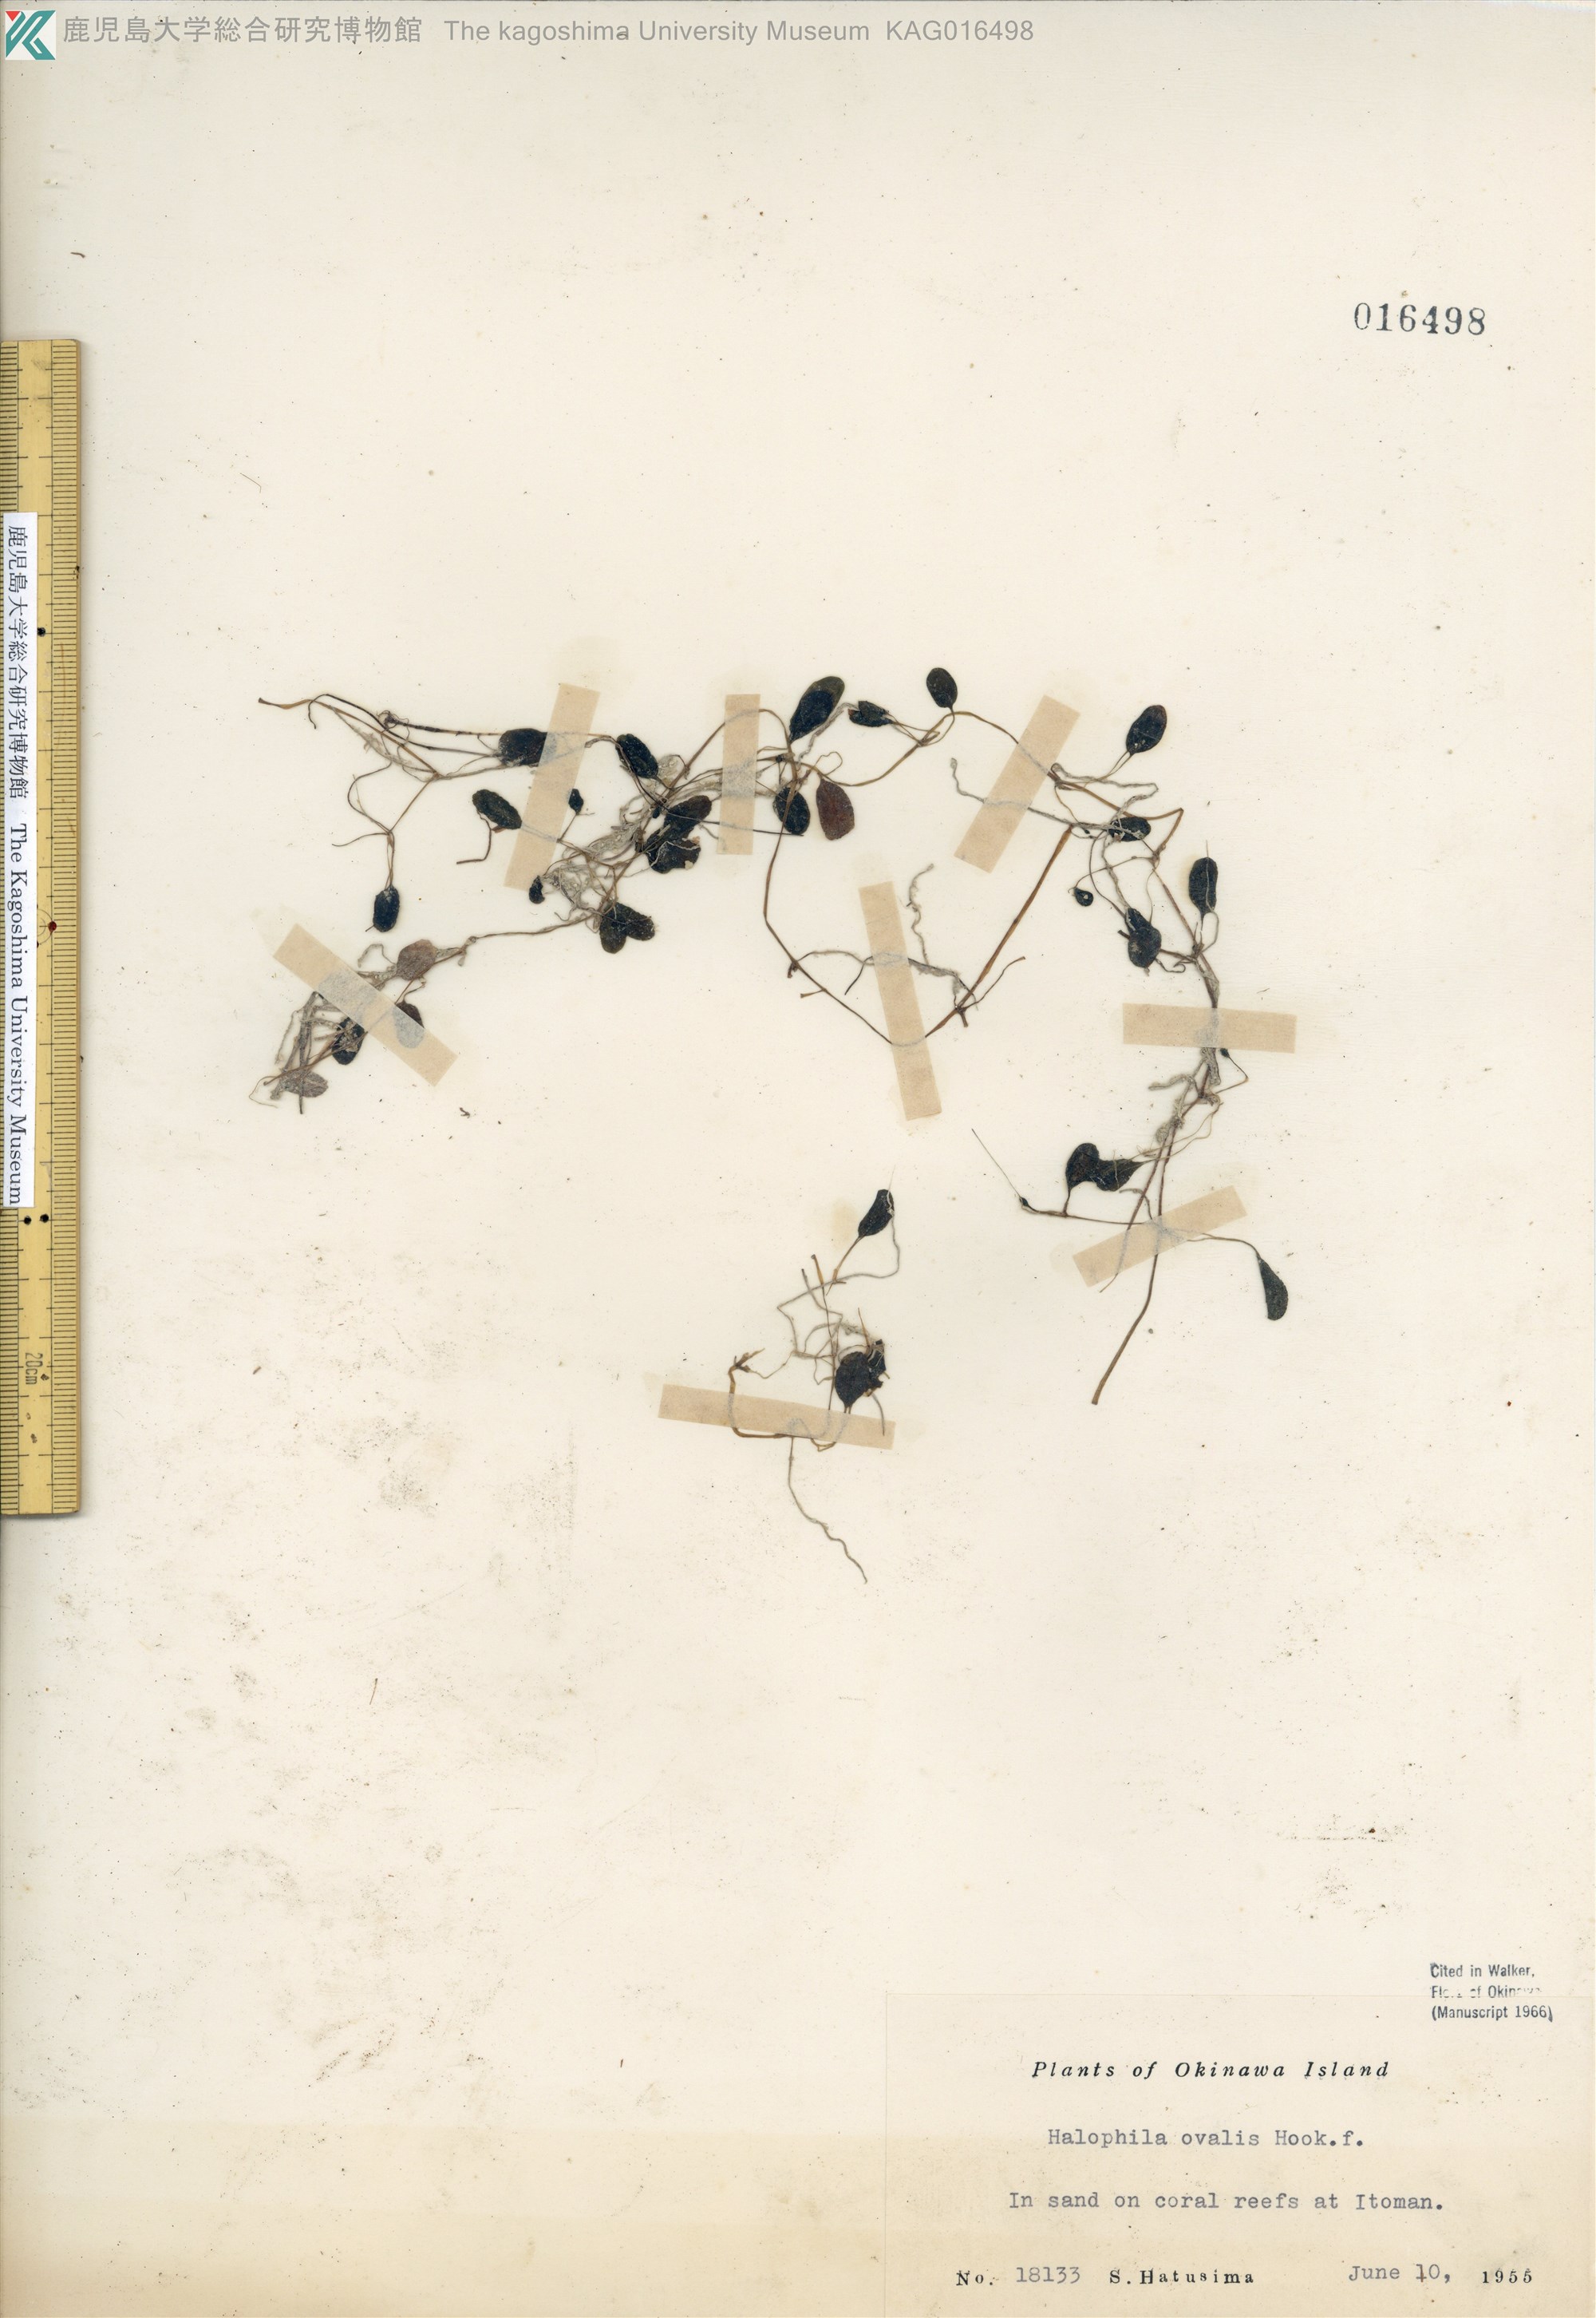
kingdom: Plantae
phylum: Tracheophyta
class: Liliopsida
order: Alismatales
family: Hydrocharitaceae
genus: Halophila
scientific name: Halophila ovalis
